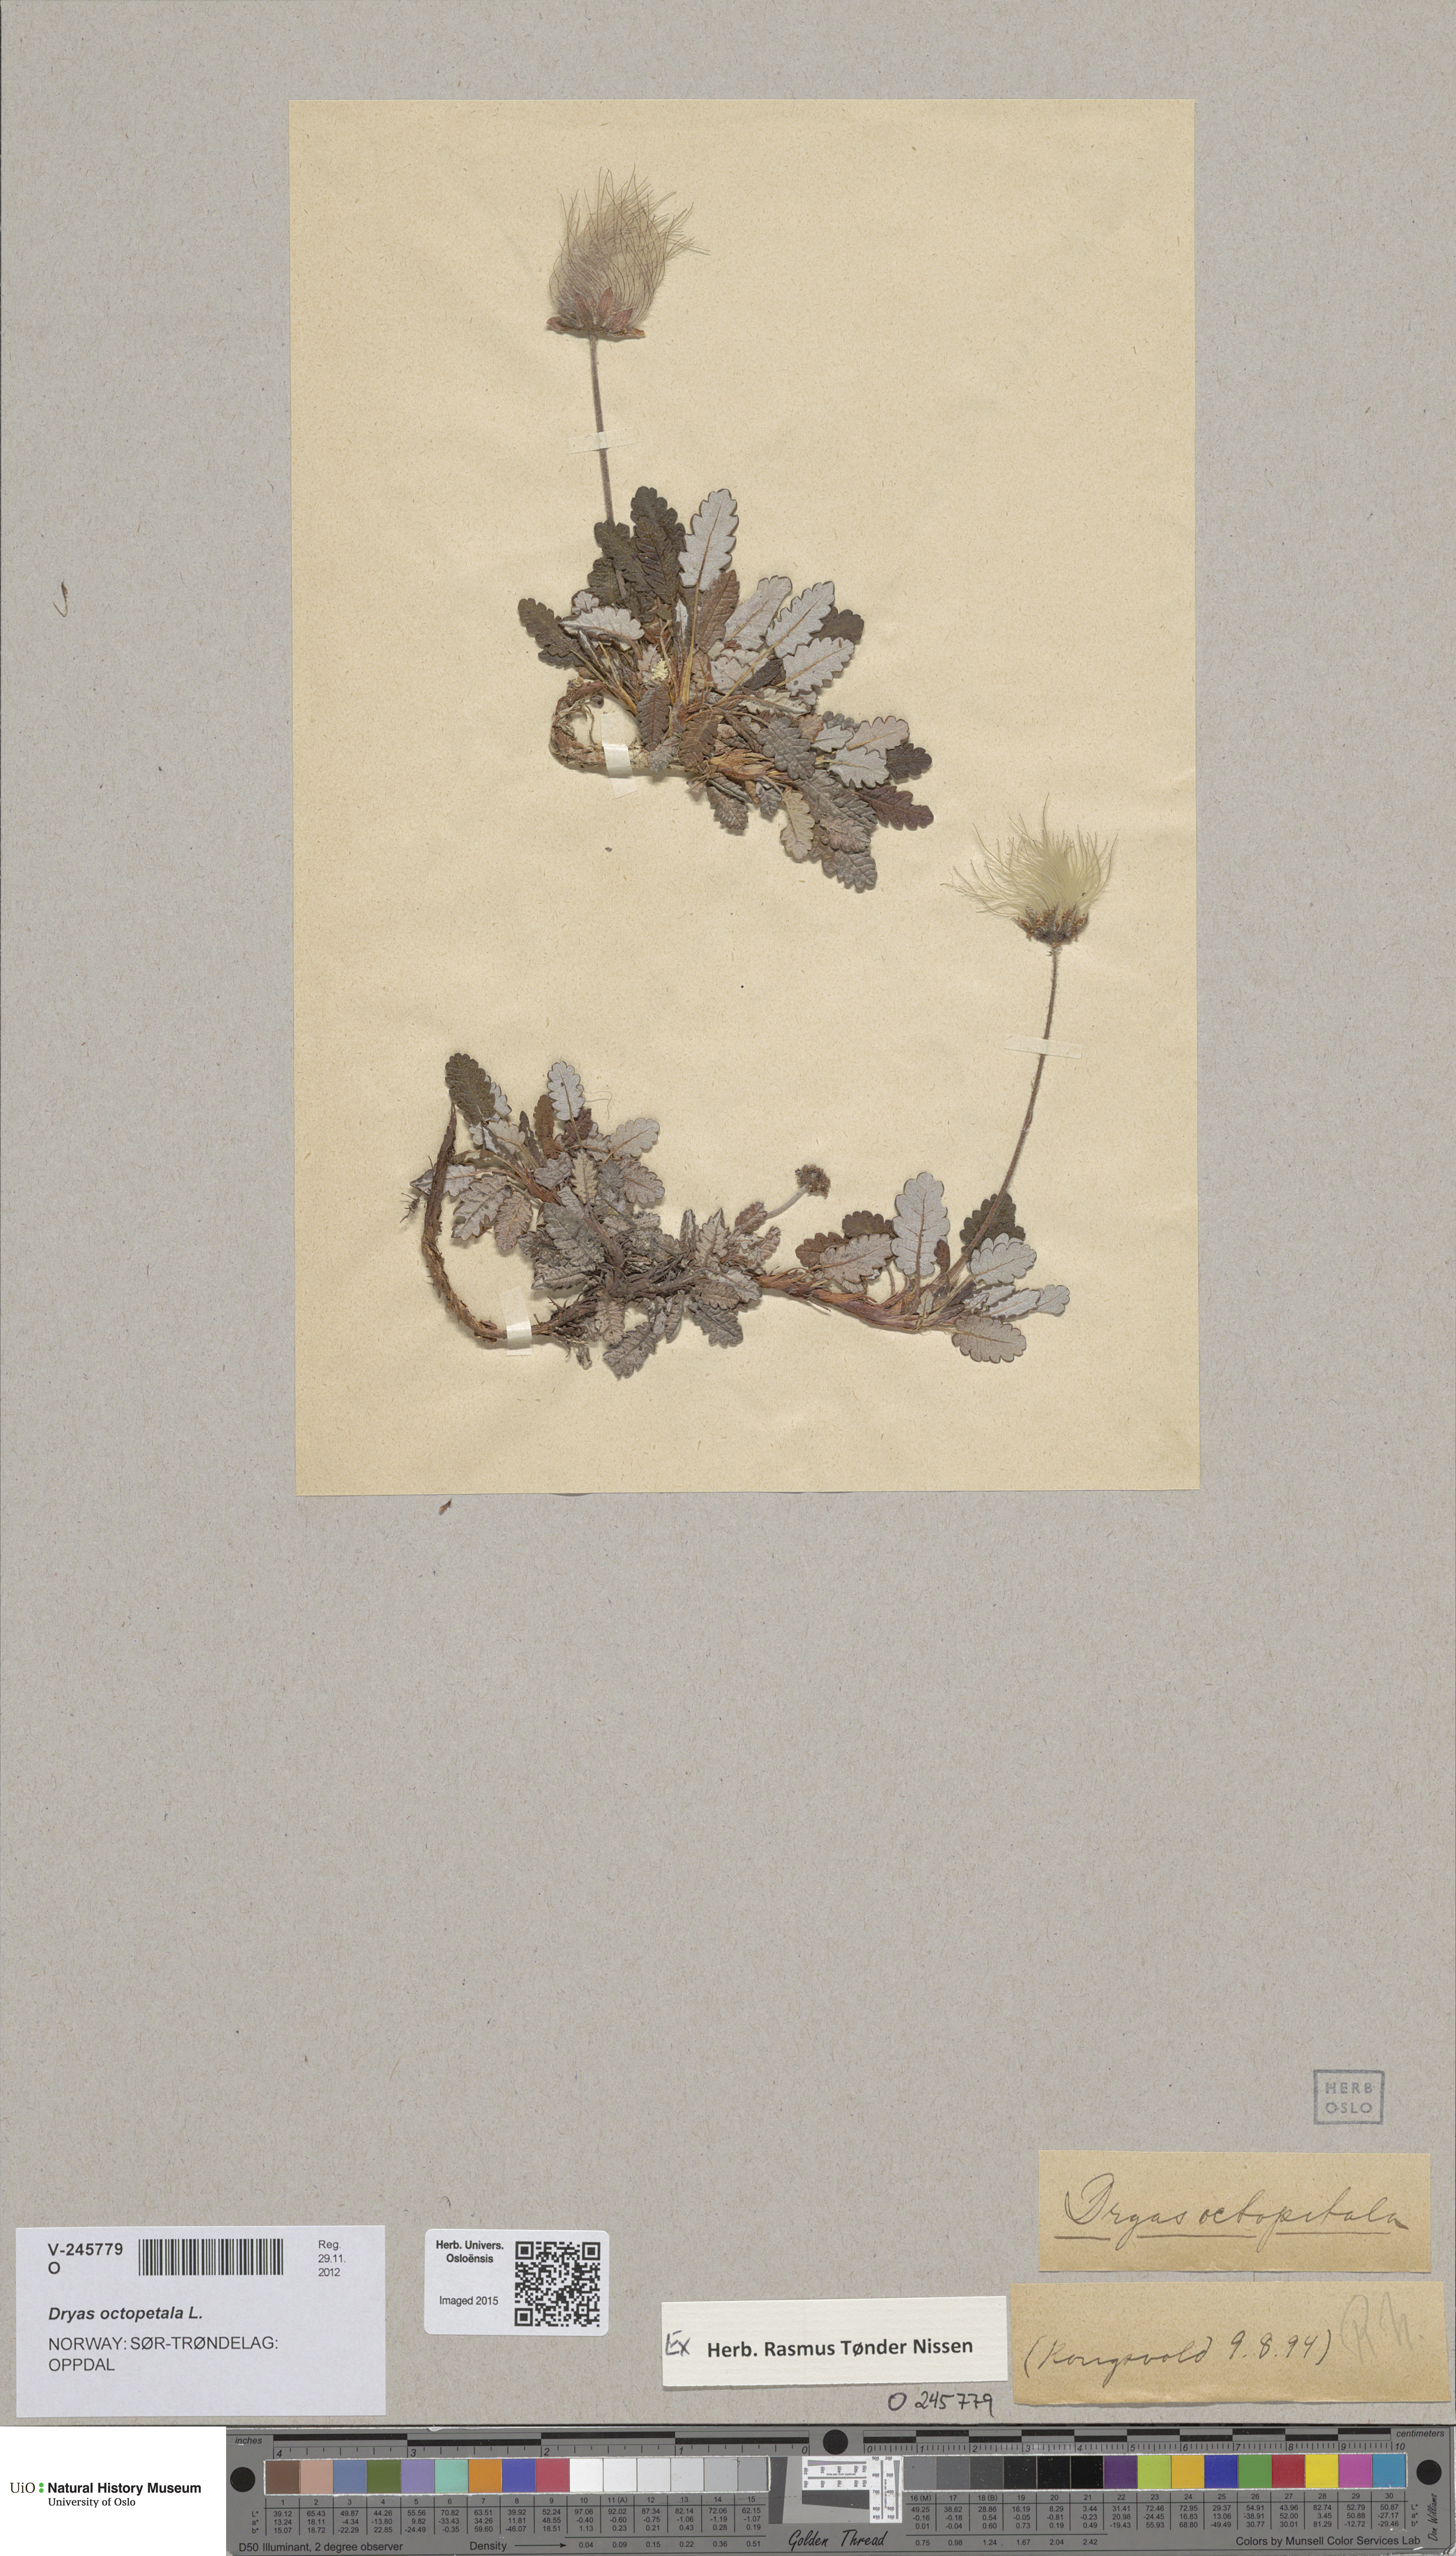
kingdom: Plantae
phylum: Tracheophyta
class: Magnoliopsida
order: Rosales
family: Rosaceae
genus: Dryas
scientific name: Dryas octopetala
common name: Eight-petal mountain-avens
